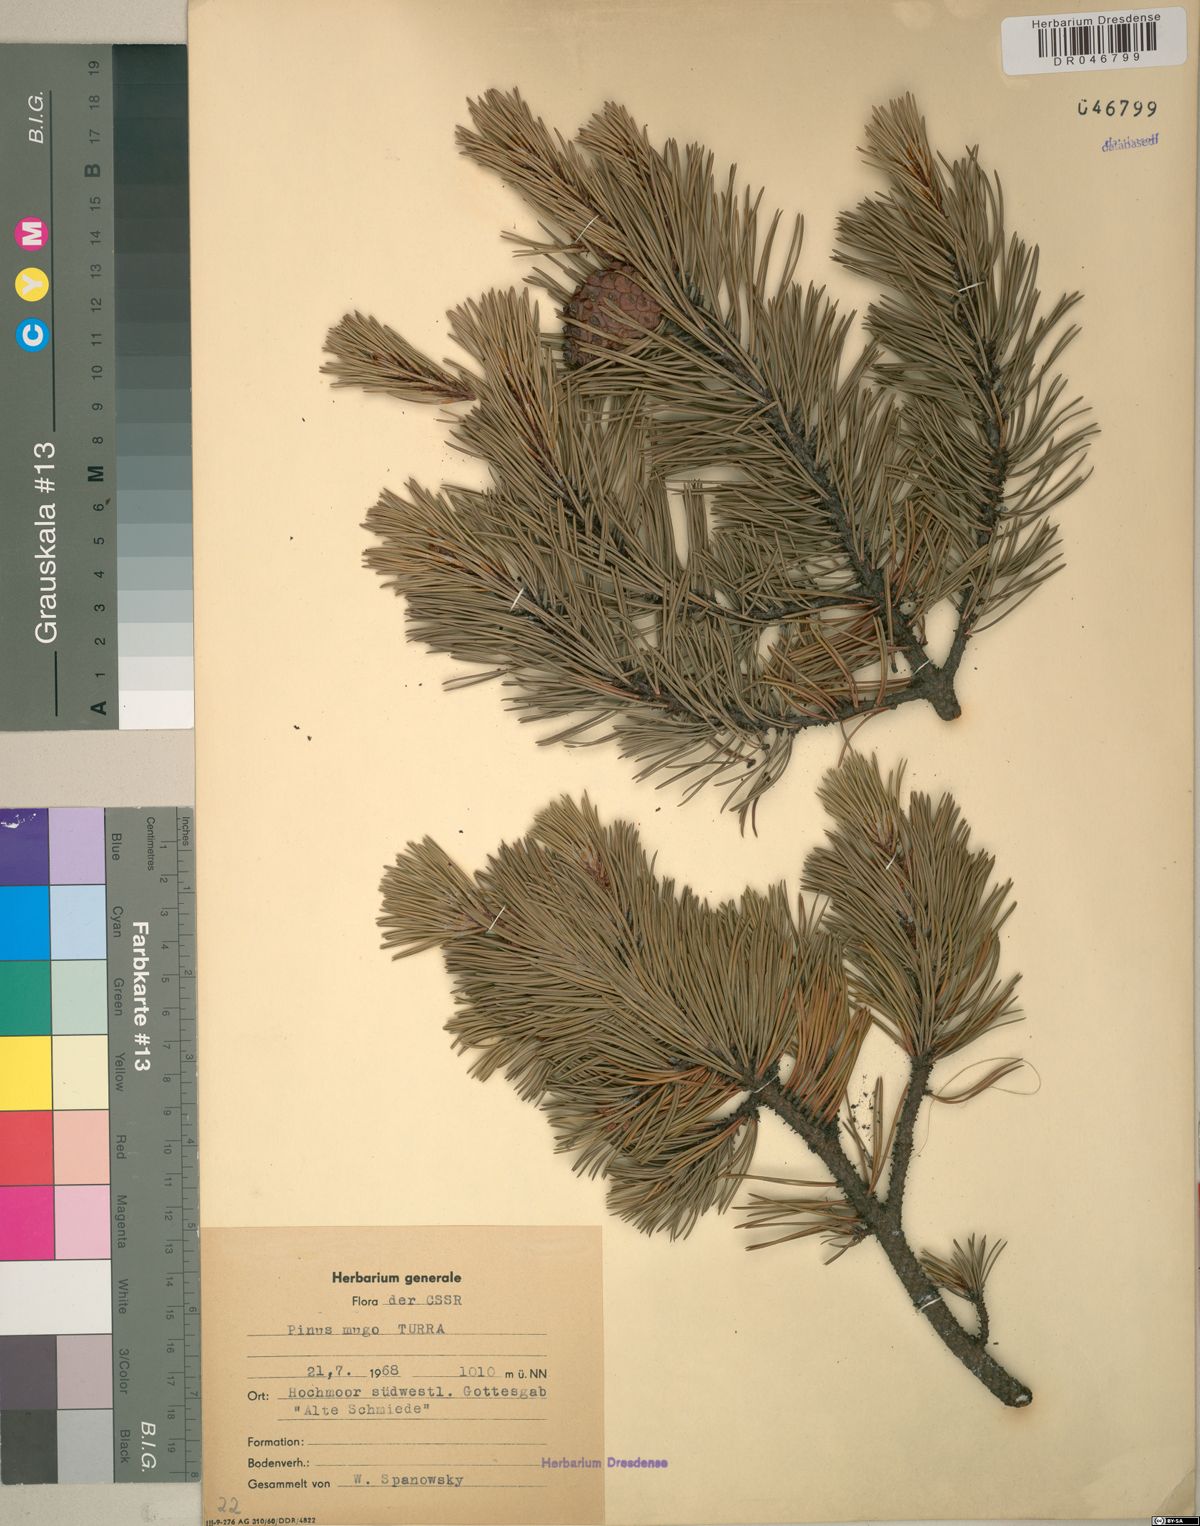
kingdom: Plantae
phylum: Tracheophyta
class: Pinopsida
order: Pinales
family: Pinaceae
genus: Pinus
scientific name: Pinus mugo
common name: Mugo pine
